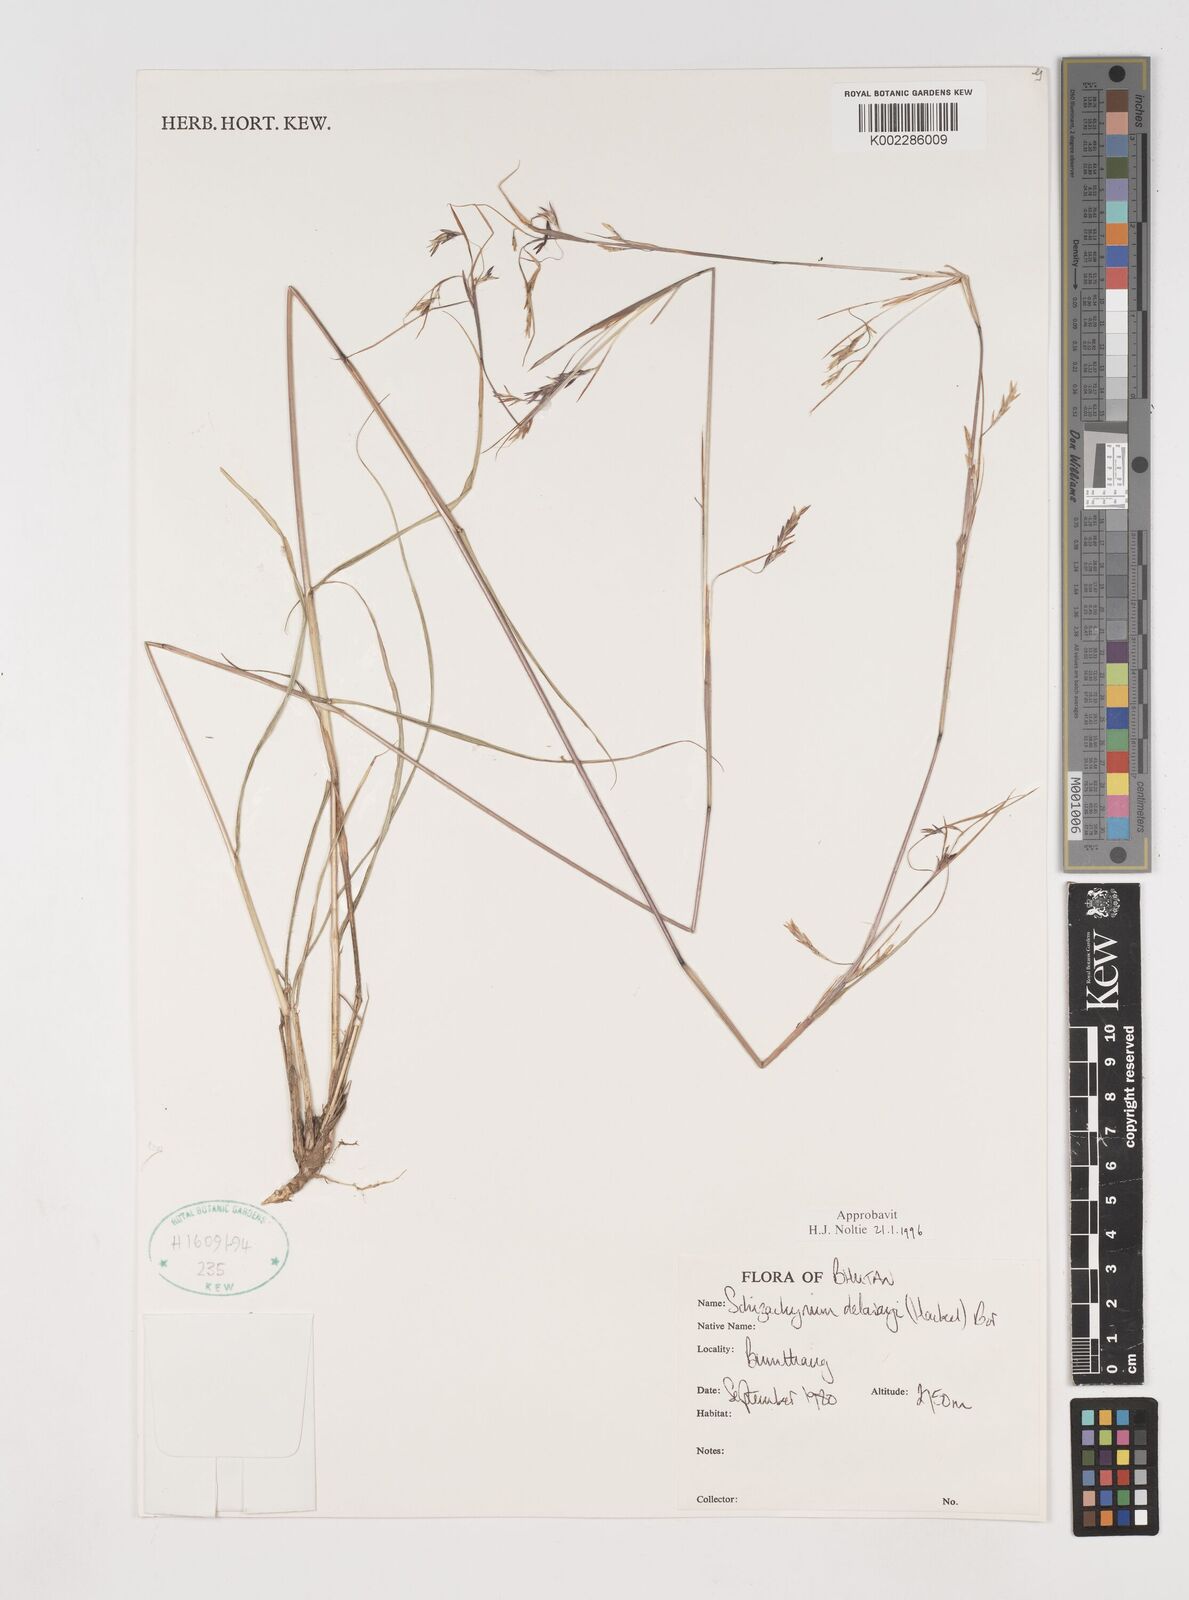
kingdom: Plantae
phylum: Tracheophyta
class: Liliopsida
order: Poales
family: Poaceae
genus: Schizachyrium
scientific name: Schizachyrium delavayi
